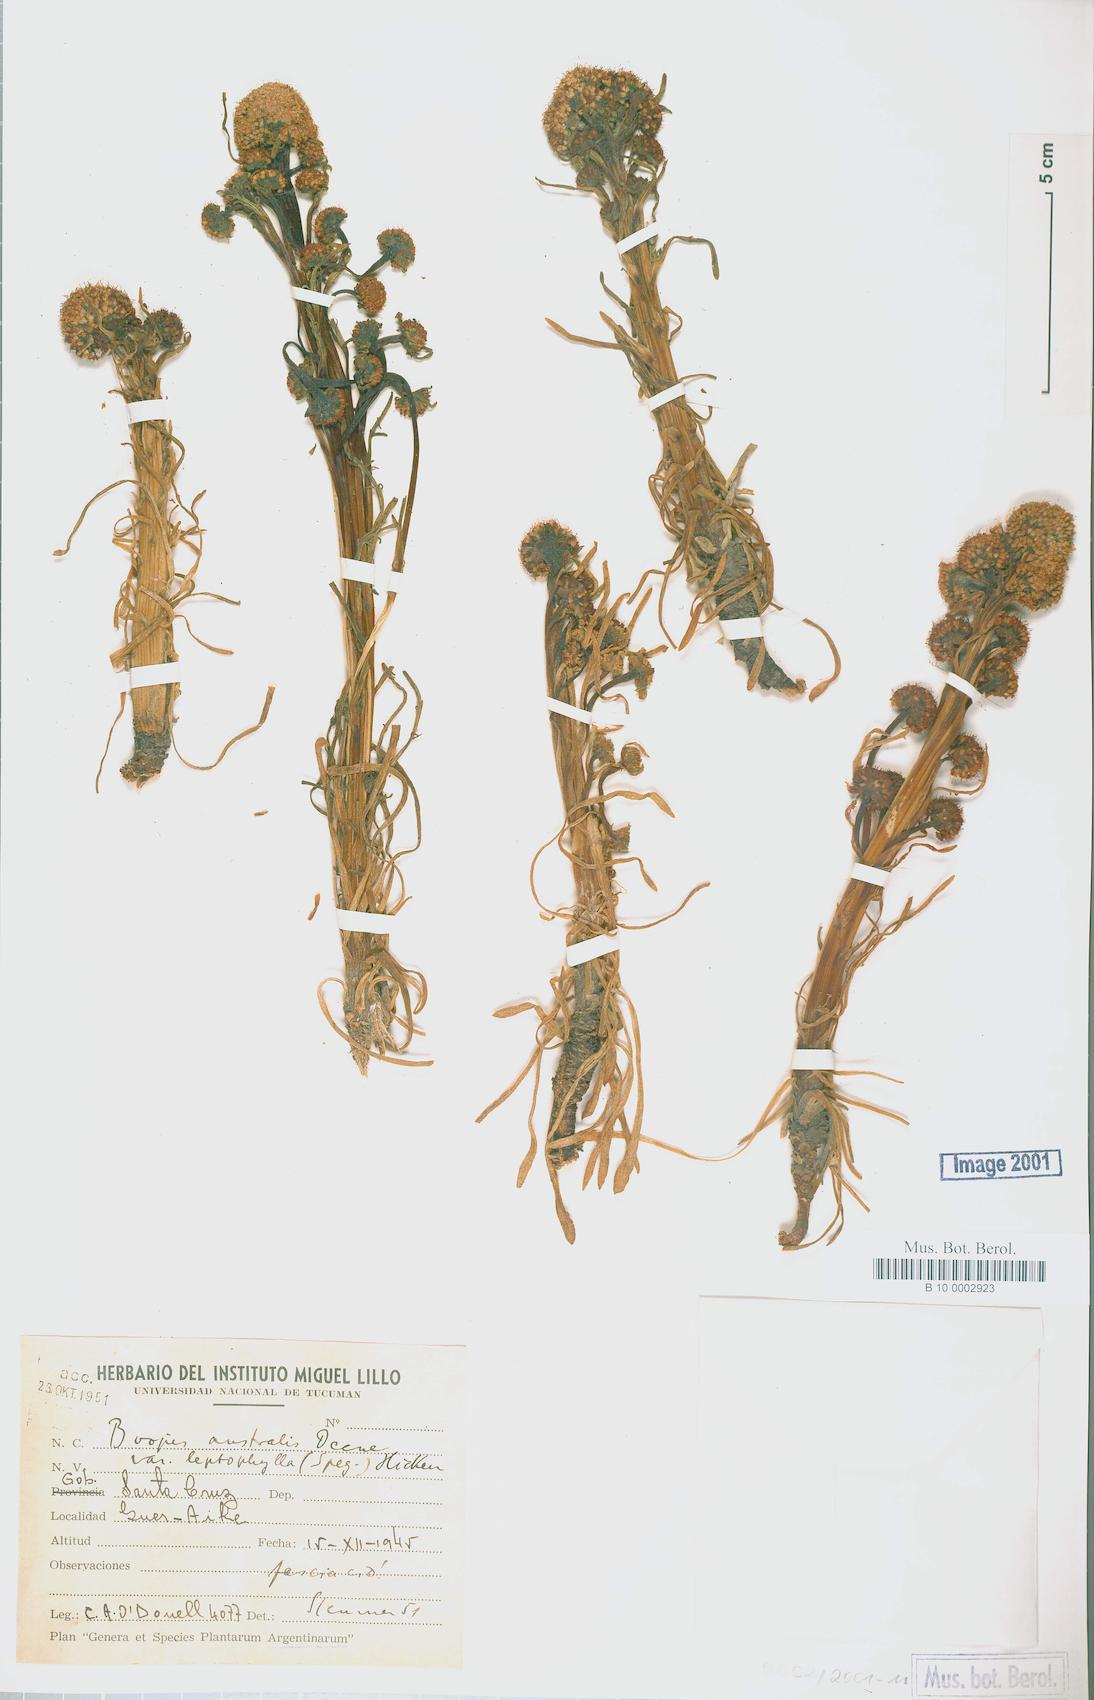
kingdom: Plantae
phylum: Tracheophyta
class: Magnoliopsida
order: Asterales
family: Calyceraceae
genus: Gamocarpha
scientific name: Gamocarpha australis
